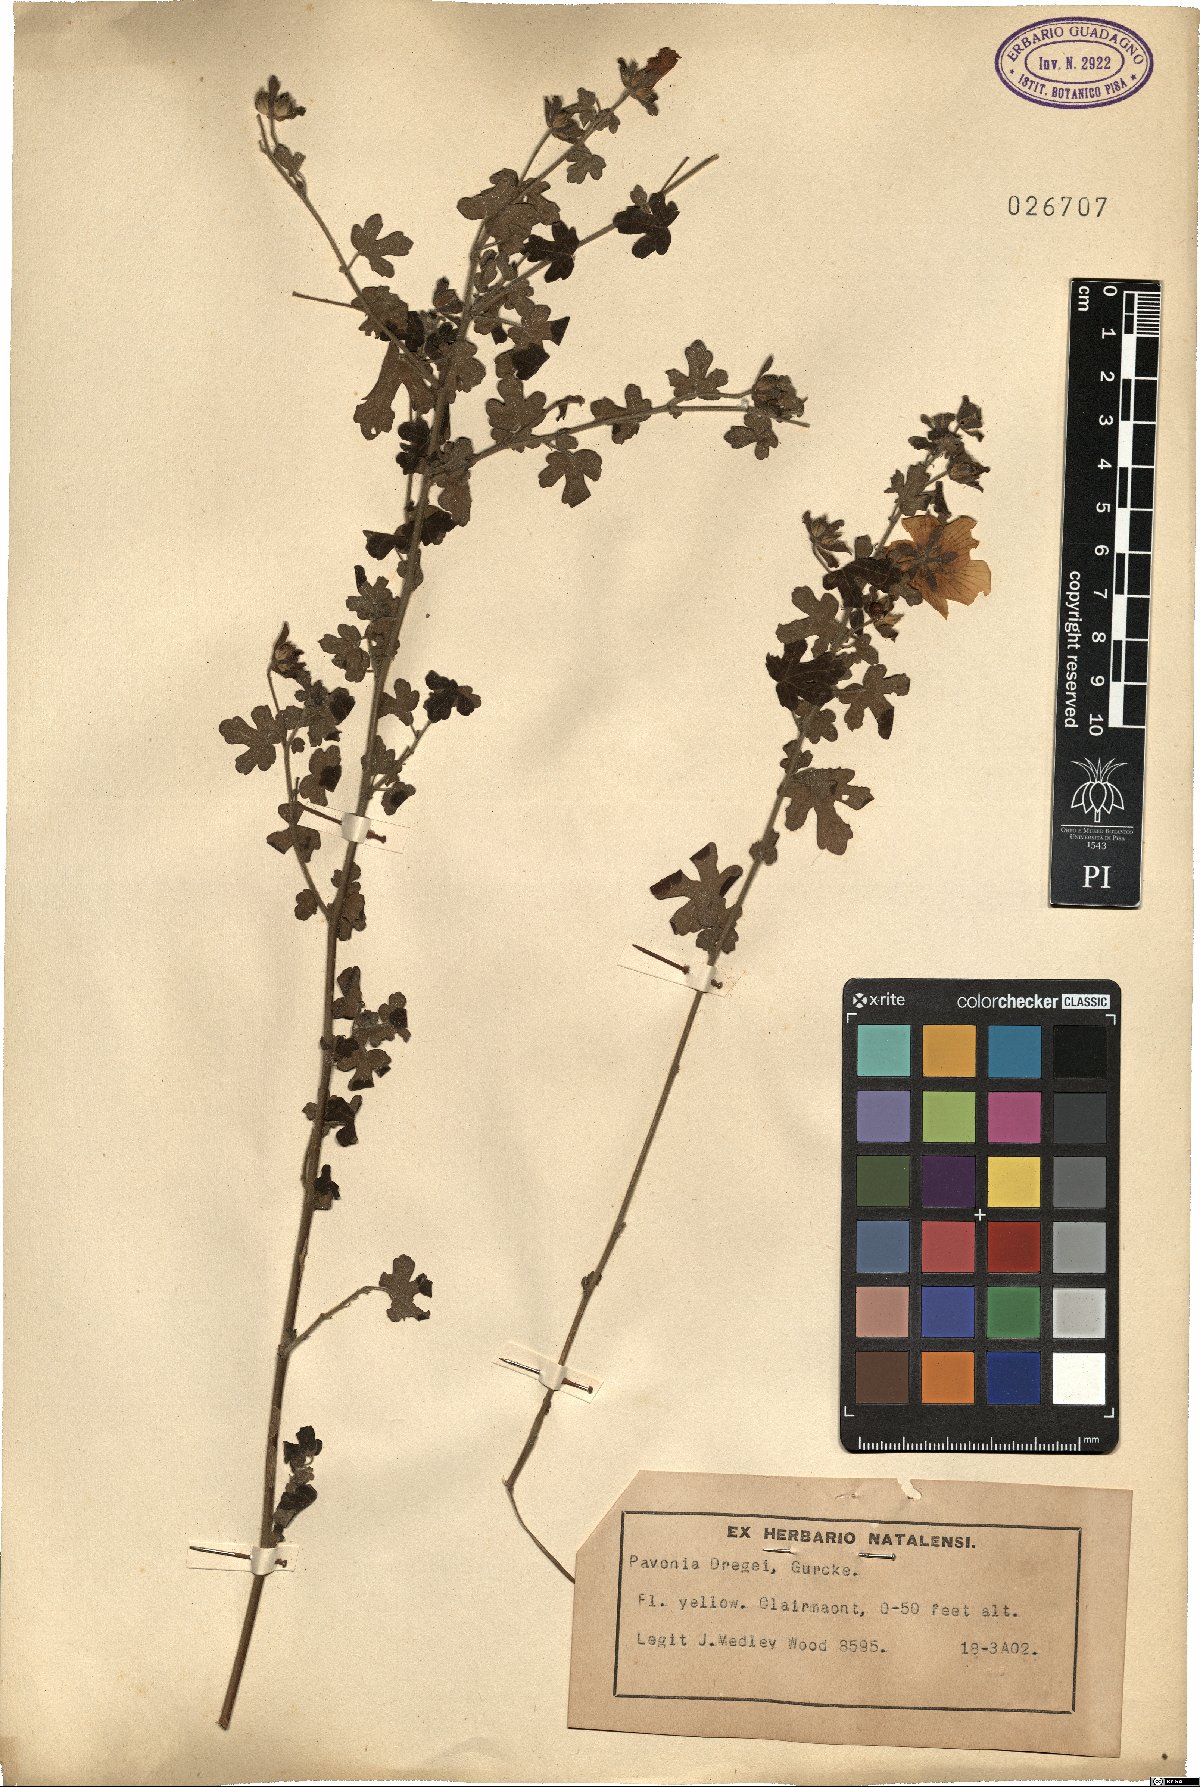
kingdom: Plantae
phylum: Tracheophyta
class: Magnoliopsida
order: Malvales
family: Malvaceae
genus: Pavonia
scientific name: Pavonia dregei
